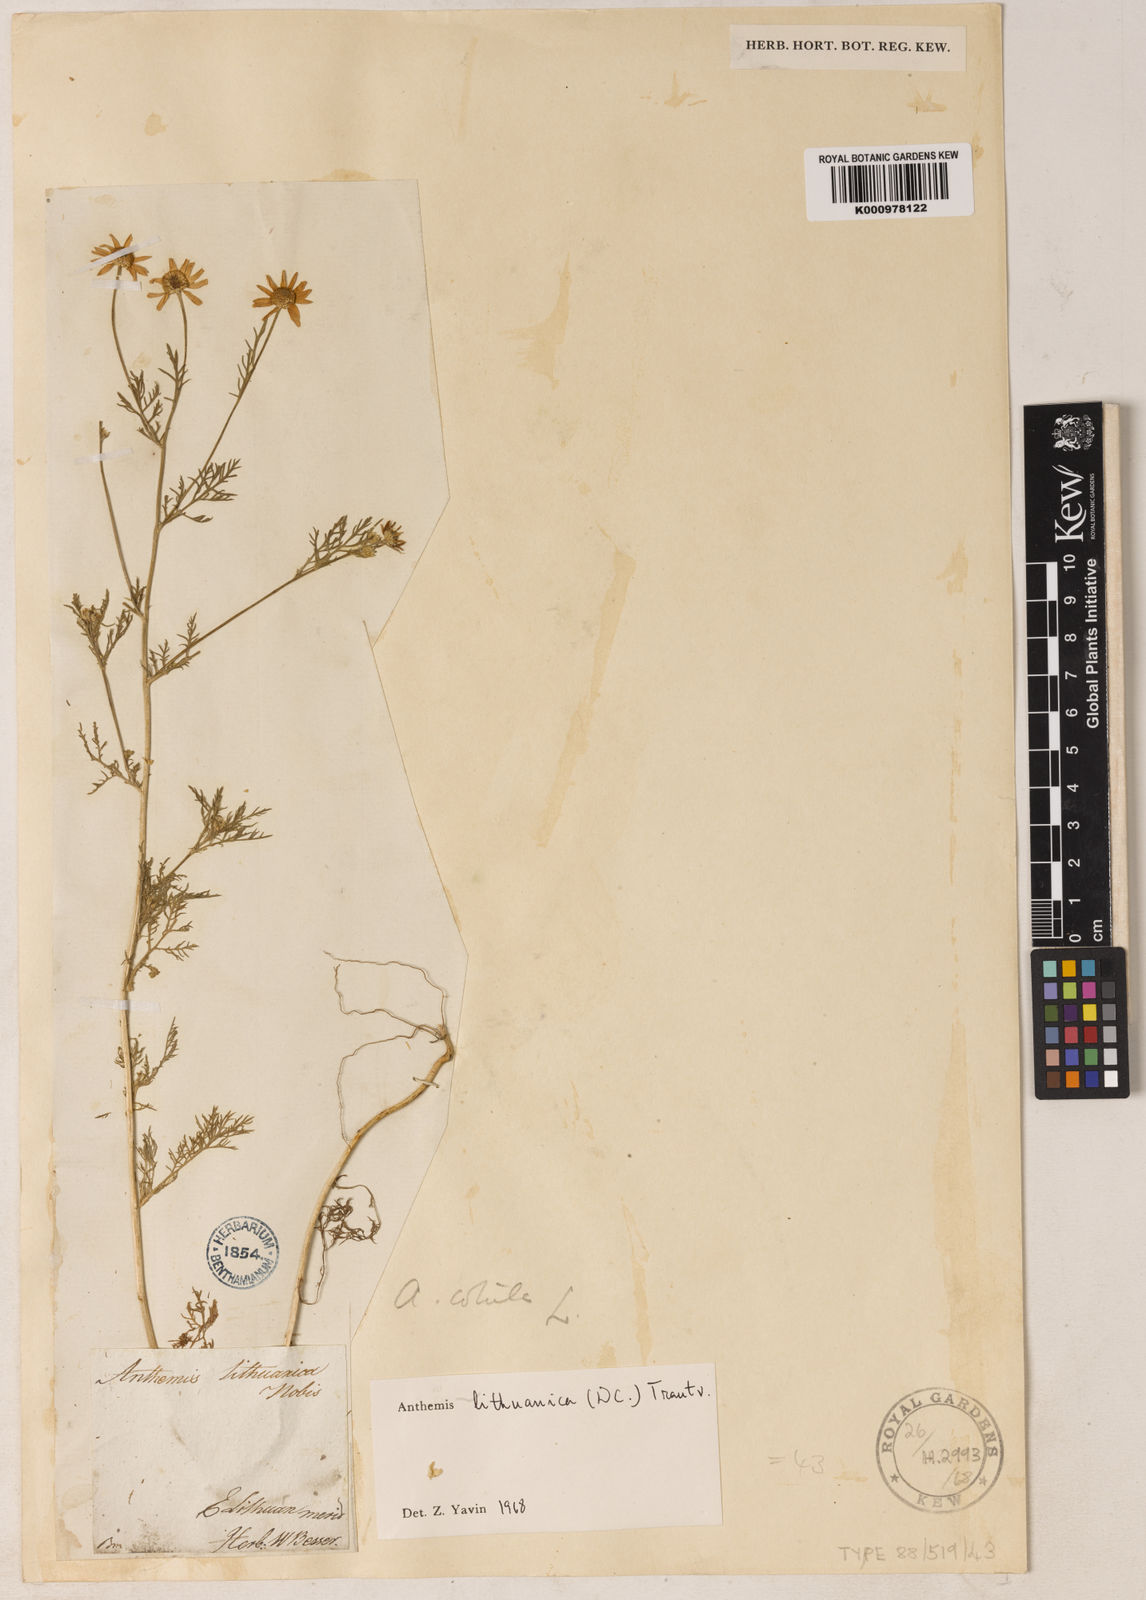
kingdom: Plantae
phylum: Tracheophyta
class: Magnoliopsida
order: Asterales
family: Asteraceae
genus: Anthemis
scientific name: Anthemis
